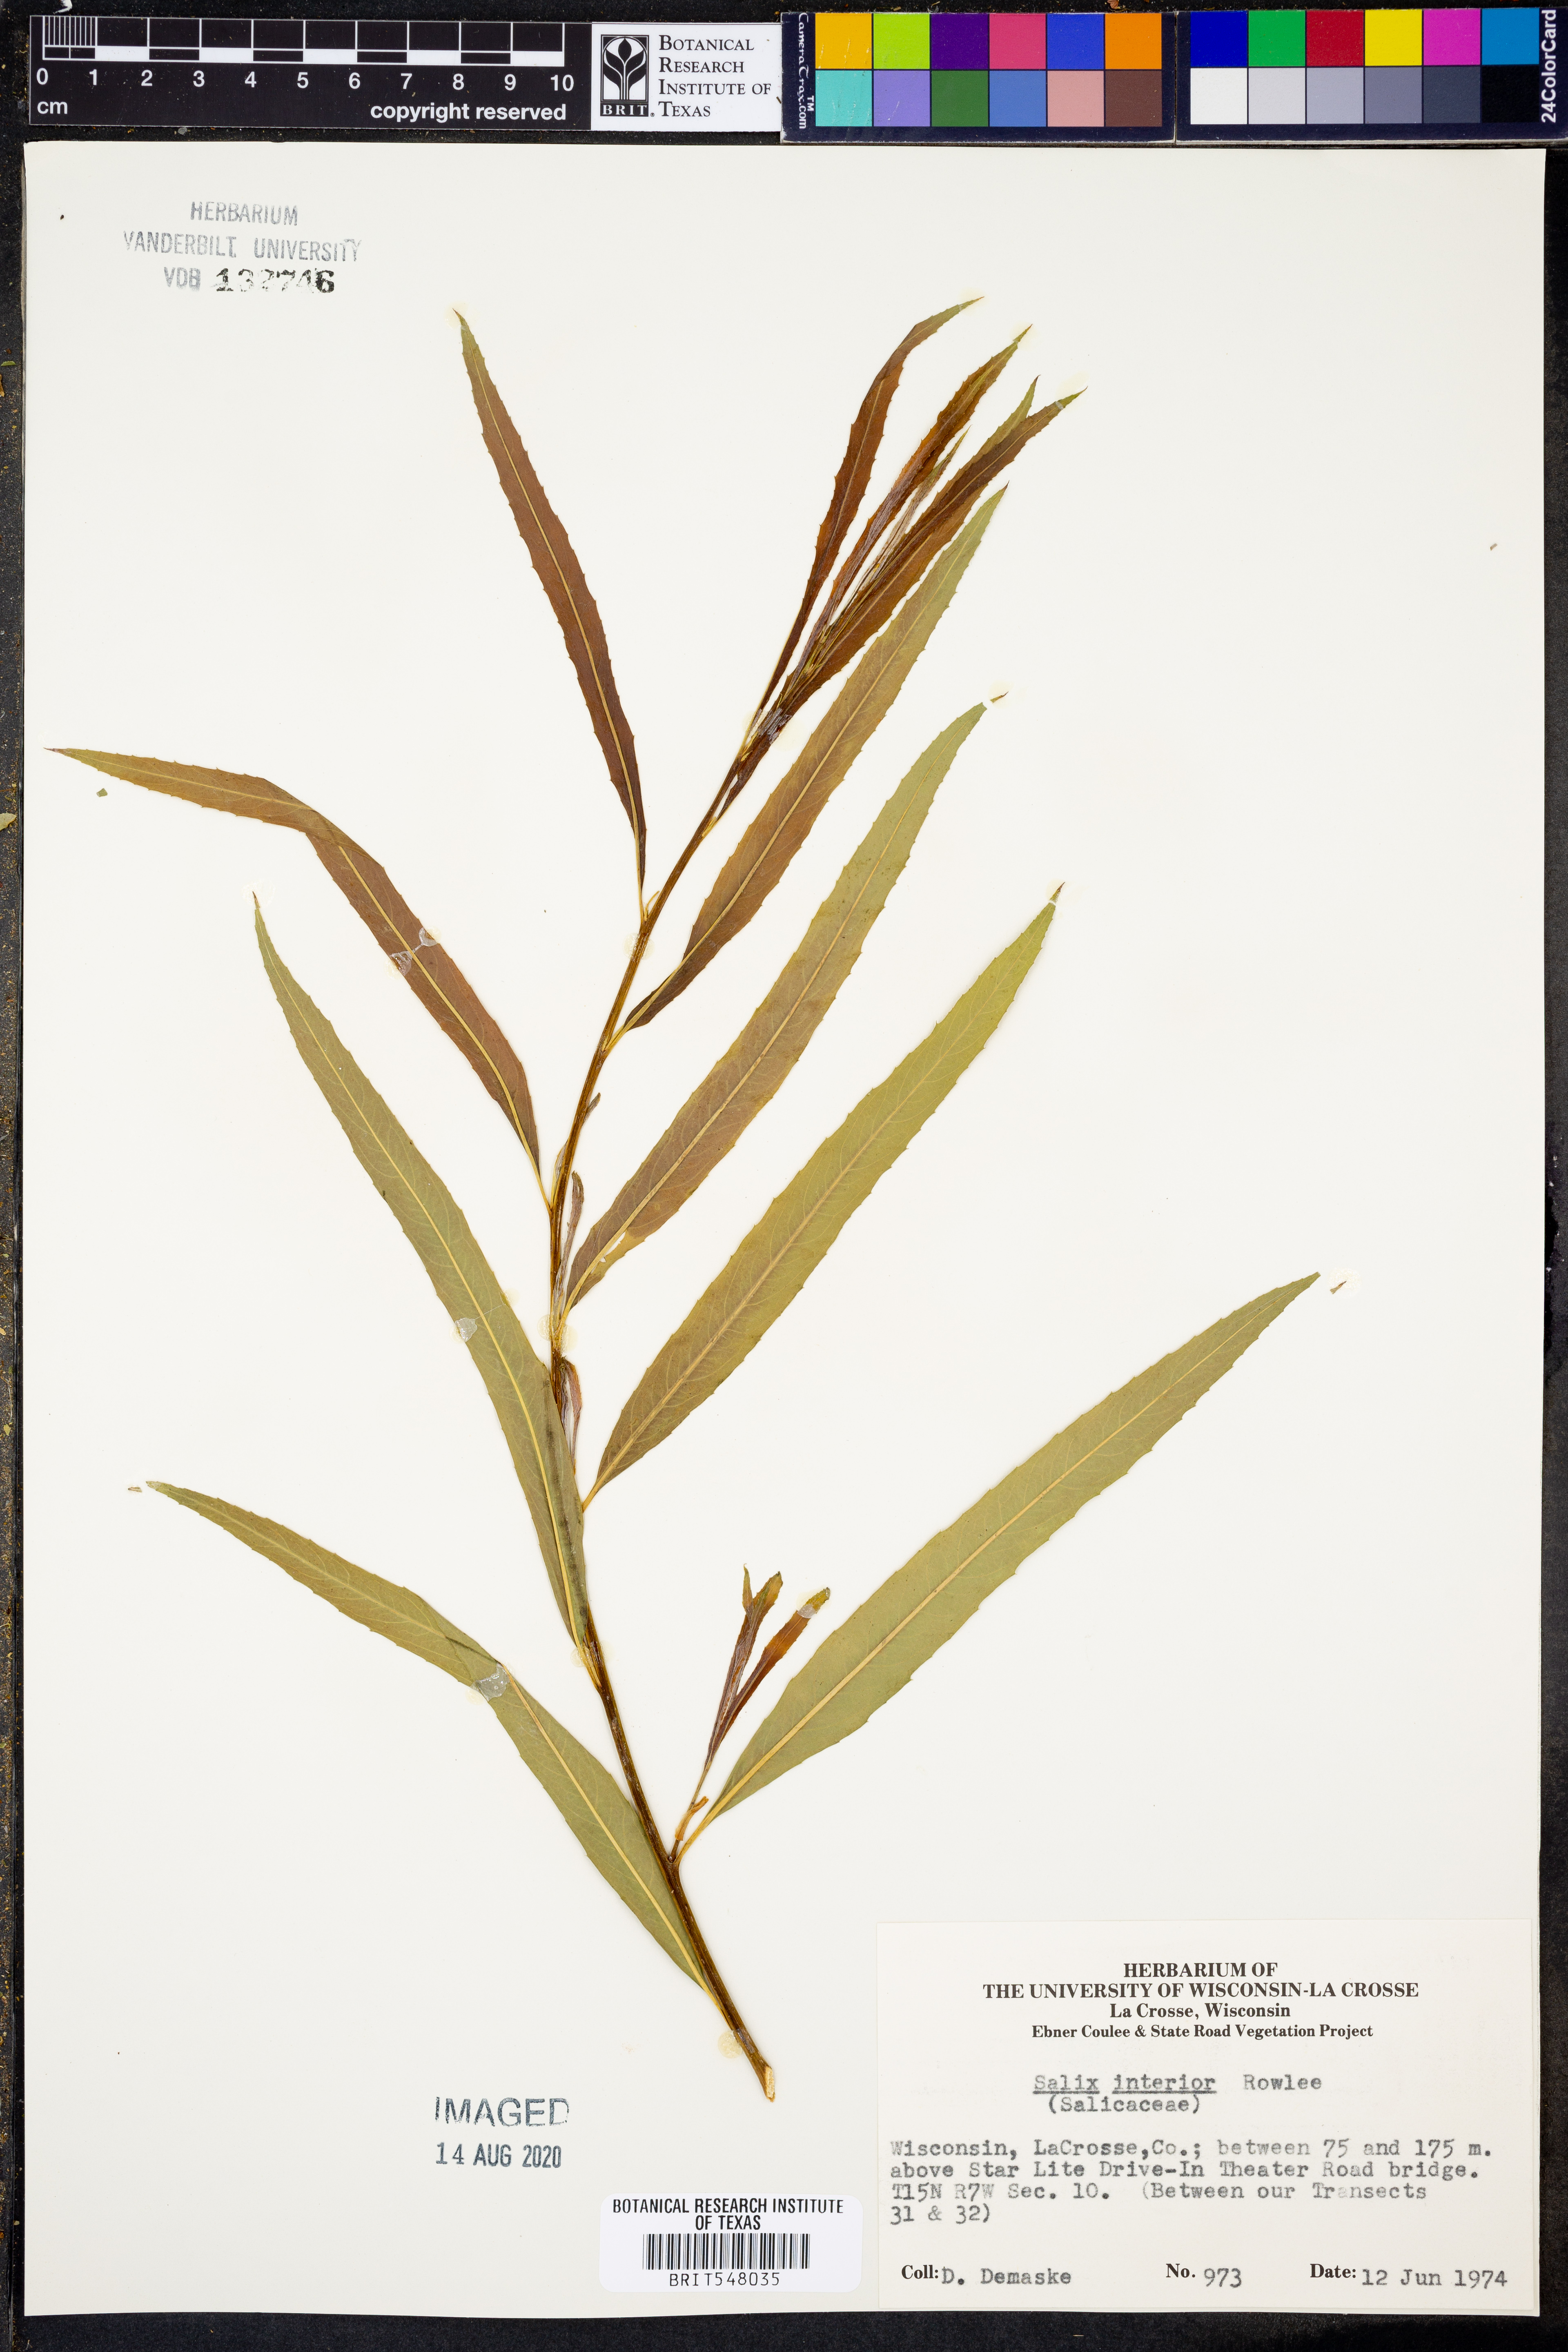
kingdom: Plantae
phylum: Tracheophyta
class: Magnoliopsida
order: Malpighiales
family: Salicaceae
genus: Salix
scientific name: Salix interior
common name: Sandbar willow
